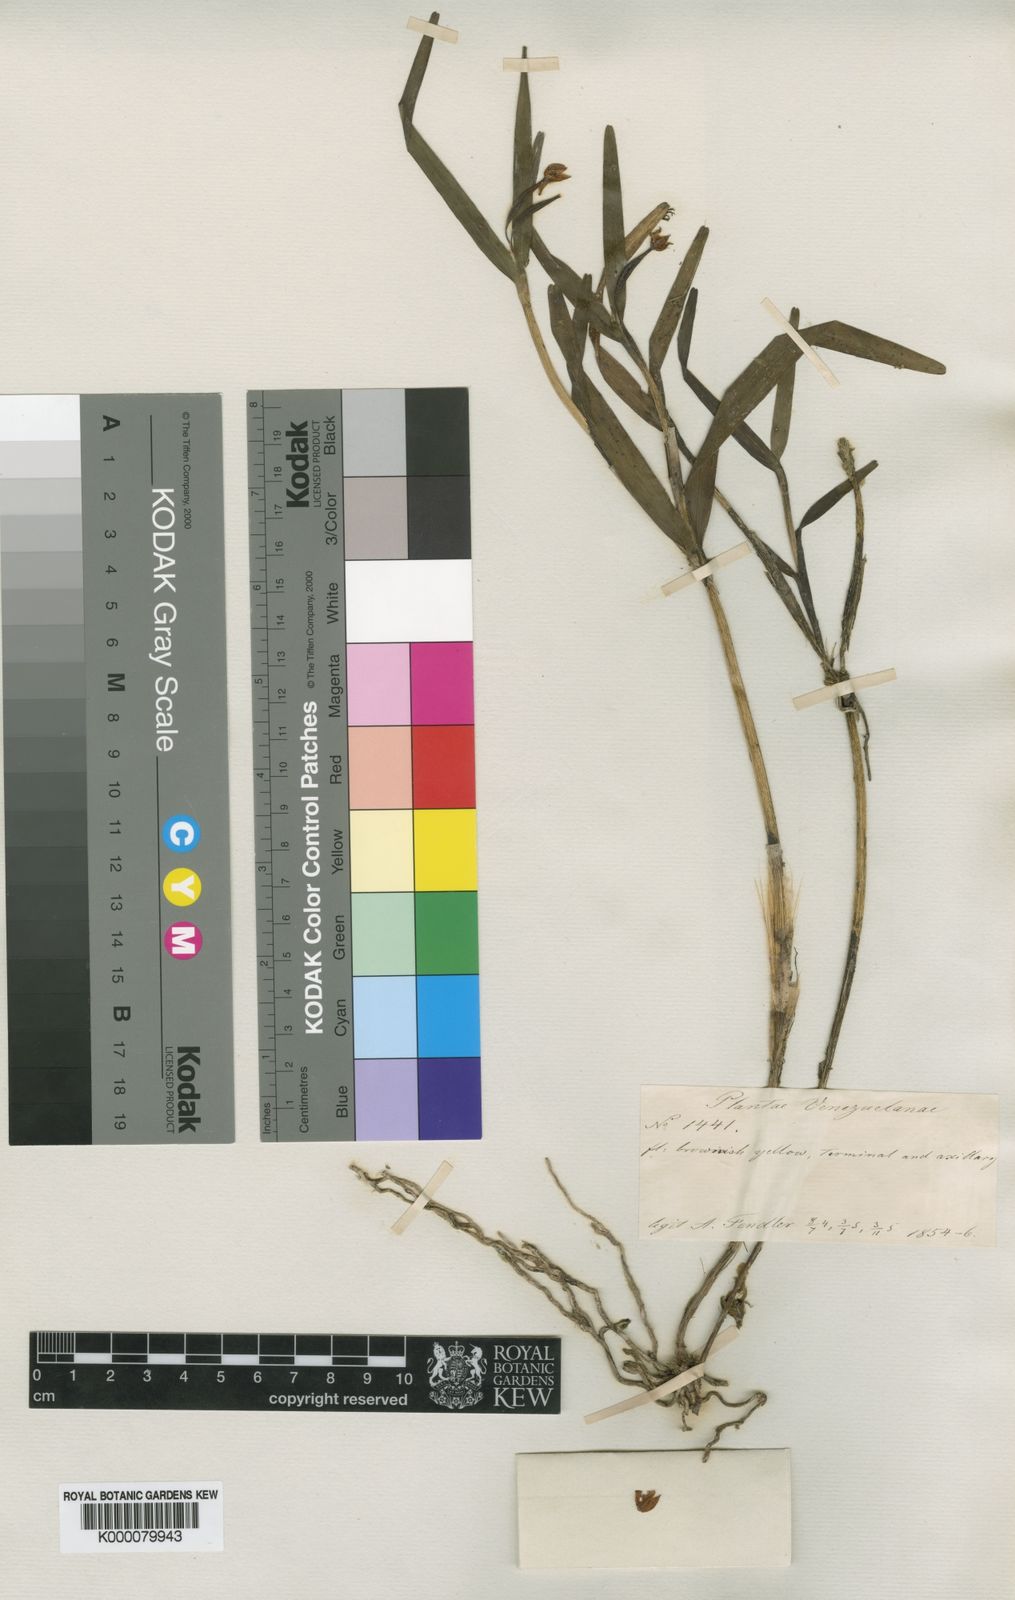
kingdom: Plantae
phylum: Tracheophyta
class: Liliopsida
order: Asparagales
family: Orchidaceae
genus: Scaphyglottis
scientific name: Scaphyglottis
